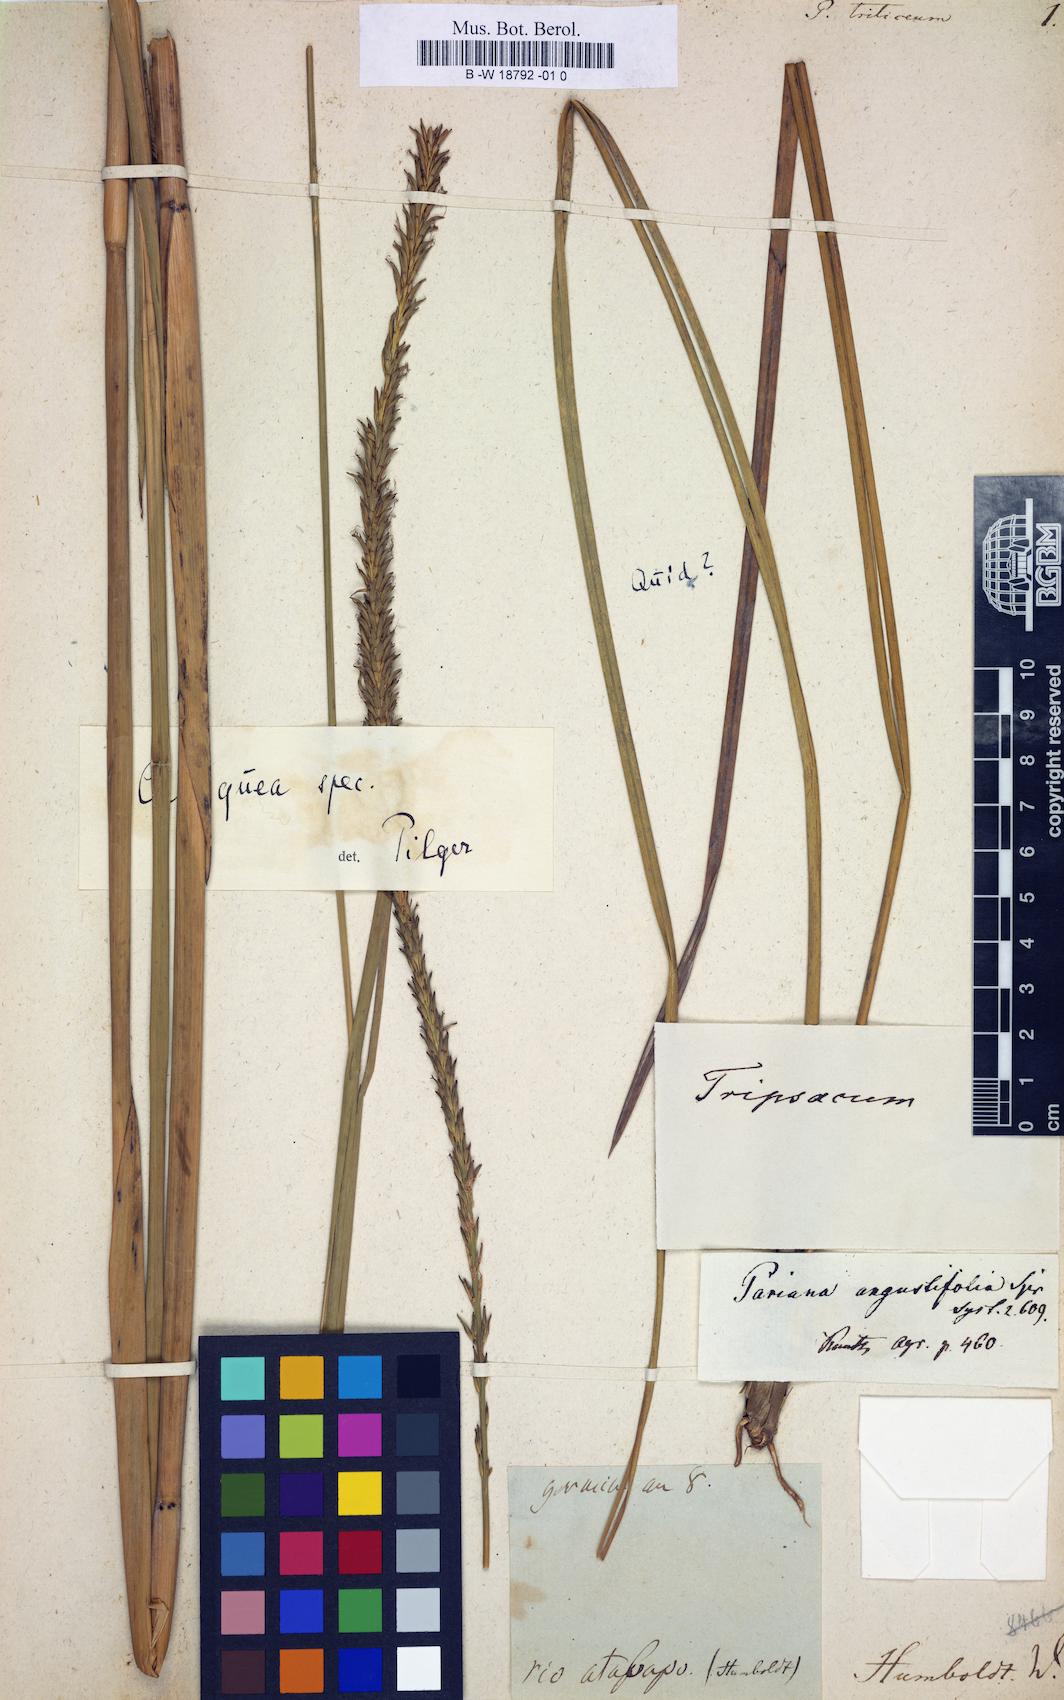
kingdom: Plantae
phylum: Tracheophyta
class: Liliopsida
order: Poales
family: Poaceae
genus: Dichanthelium
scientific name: Dichanthelium dichotomum
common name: Cypress panicgrass
